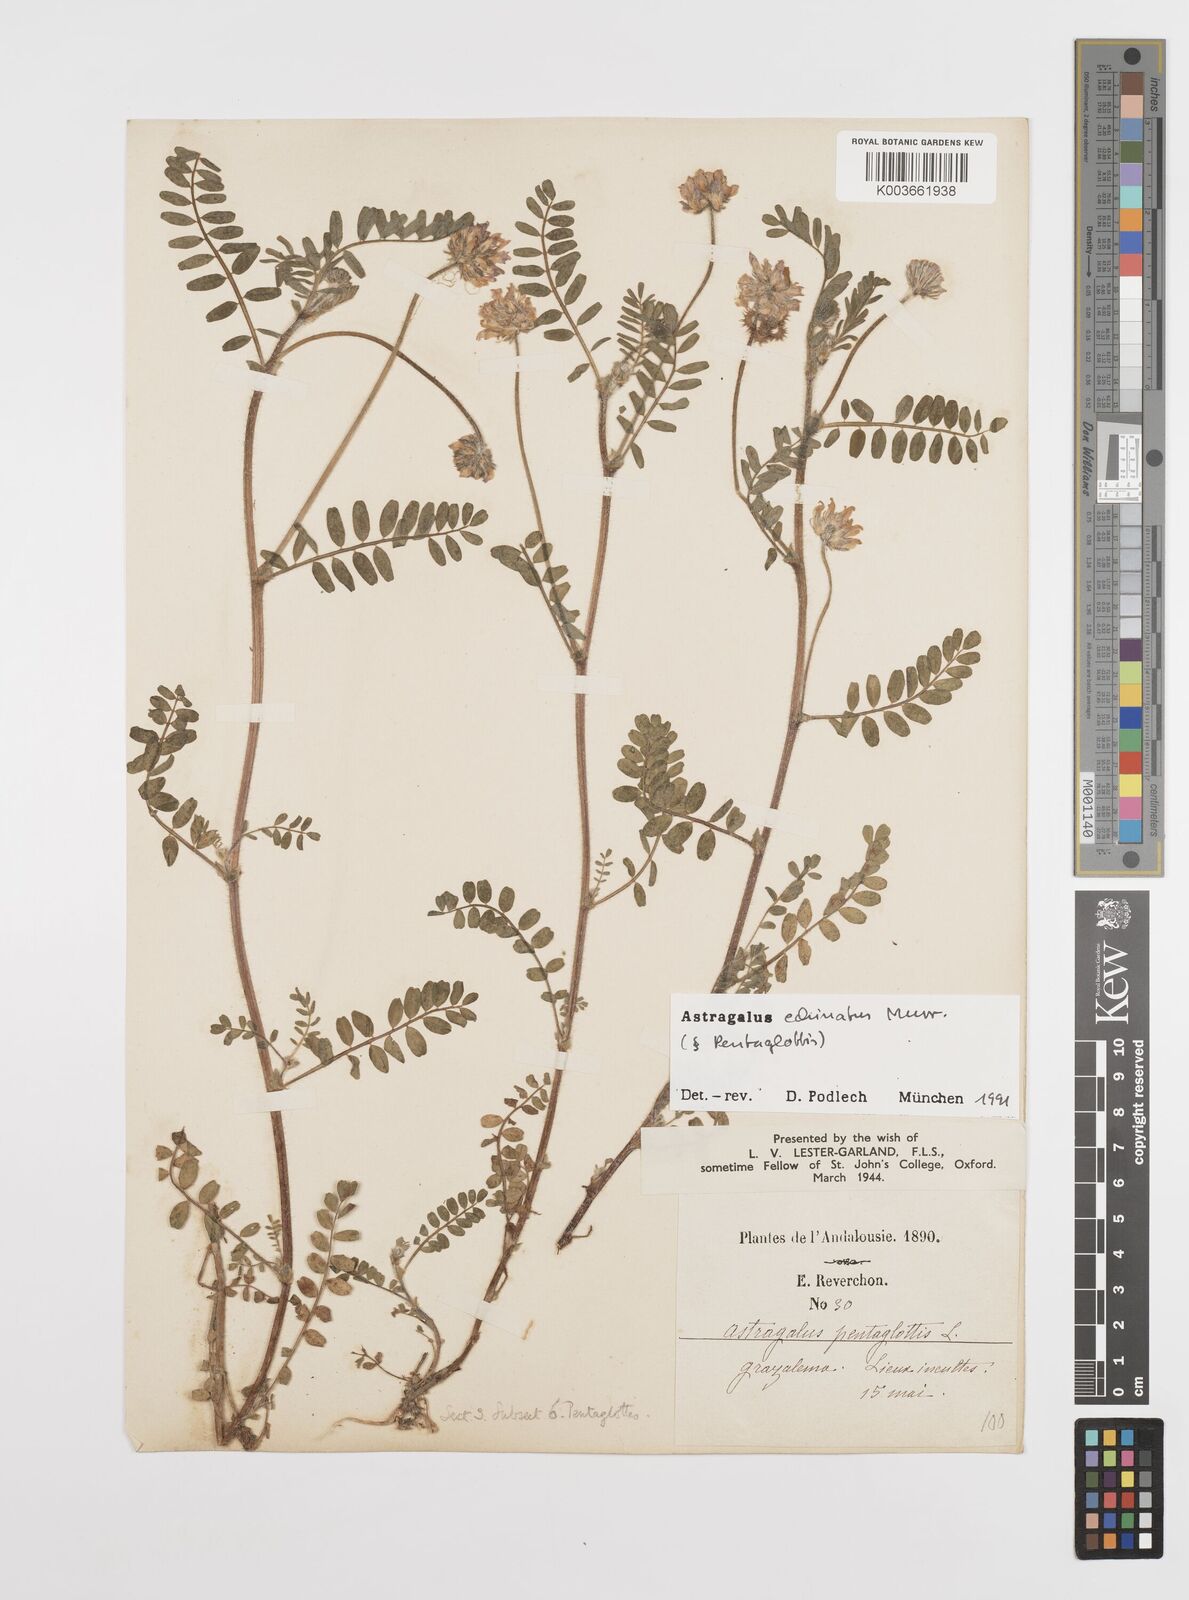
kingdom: Plantae
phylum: Tracheophyta
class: Magnoliopsida
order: Fabales
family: Fabaceae
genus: Astragalus
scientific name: Astragalus echinatus
